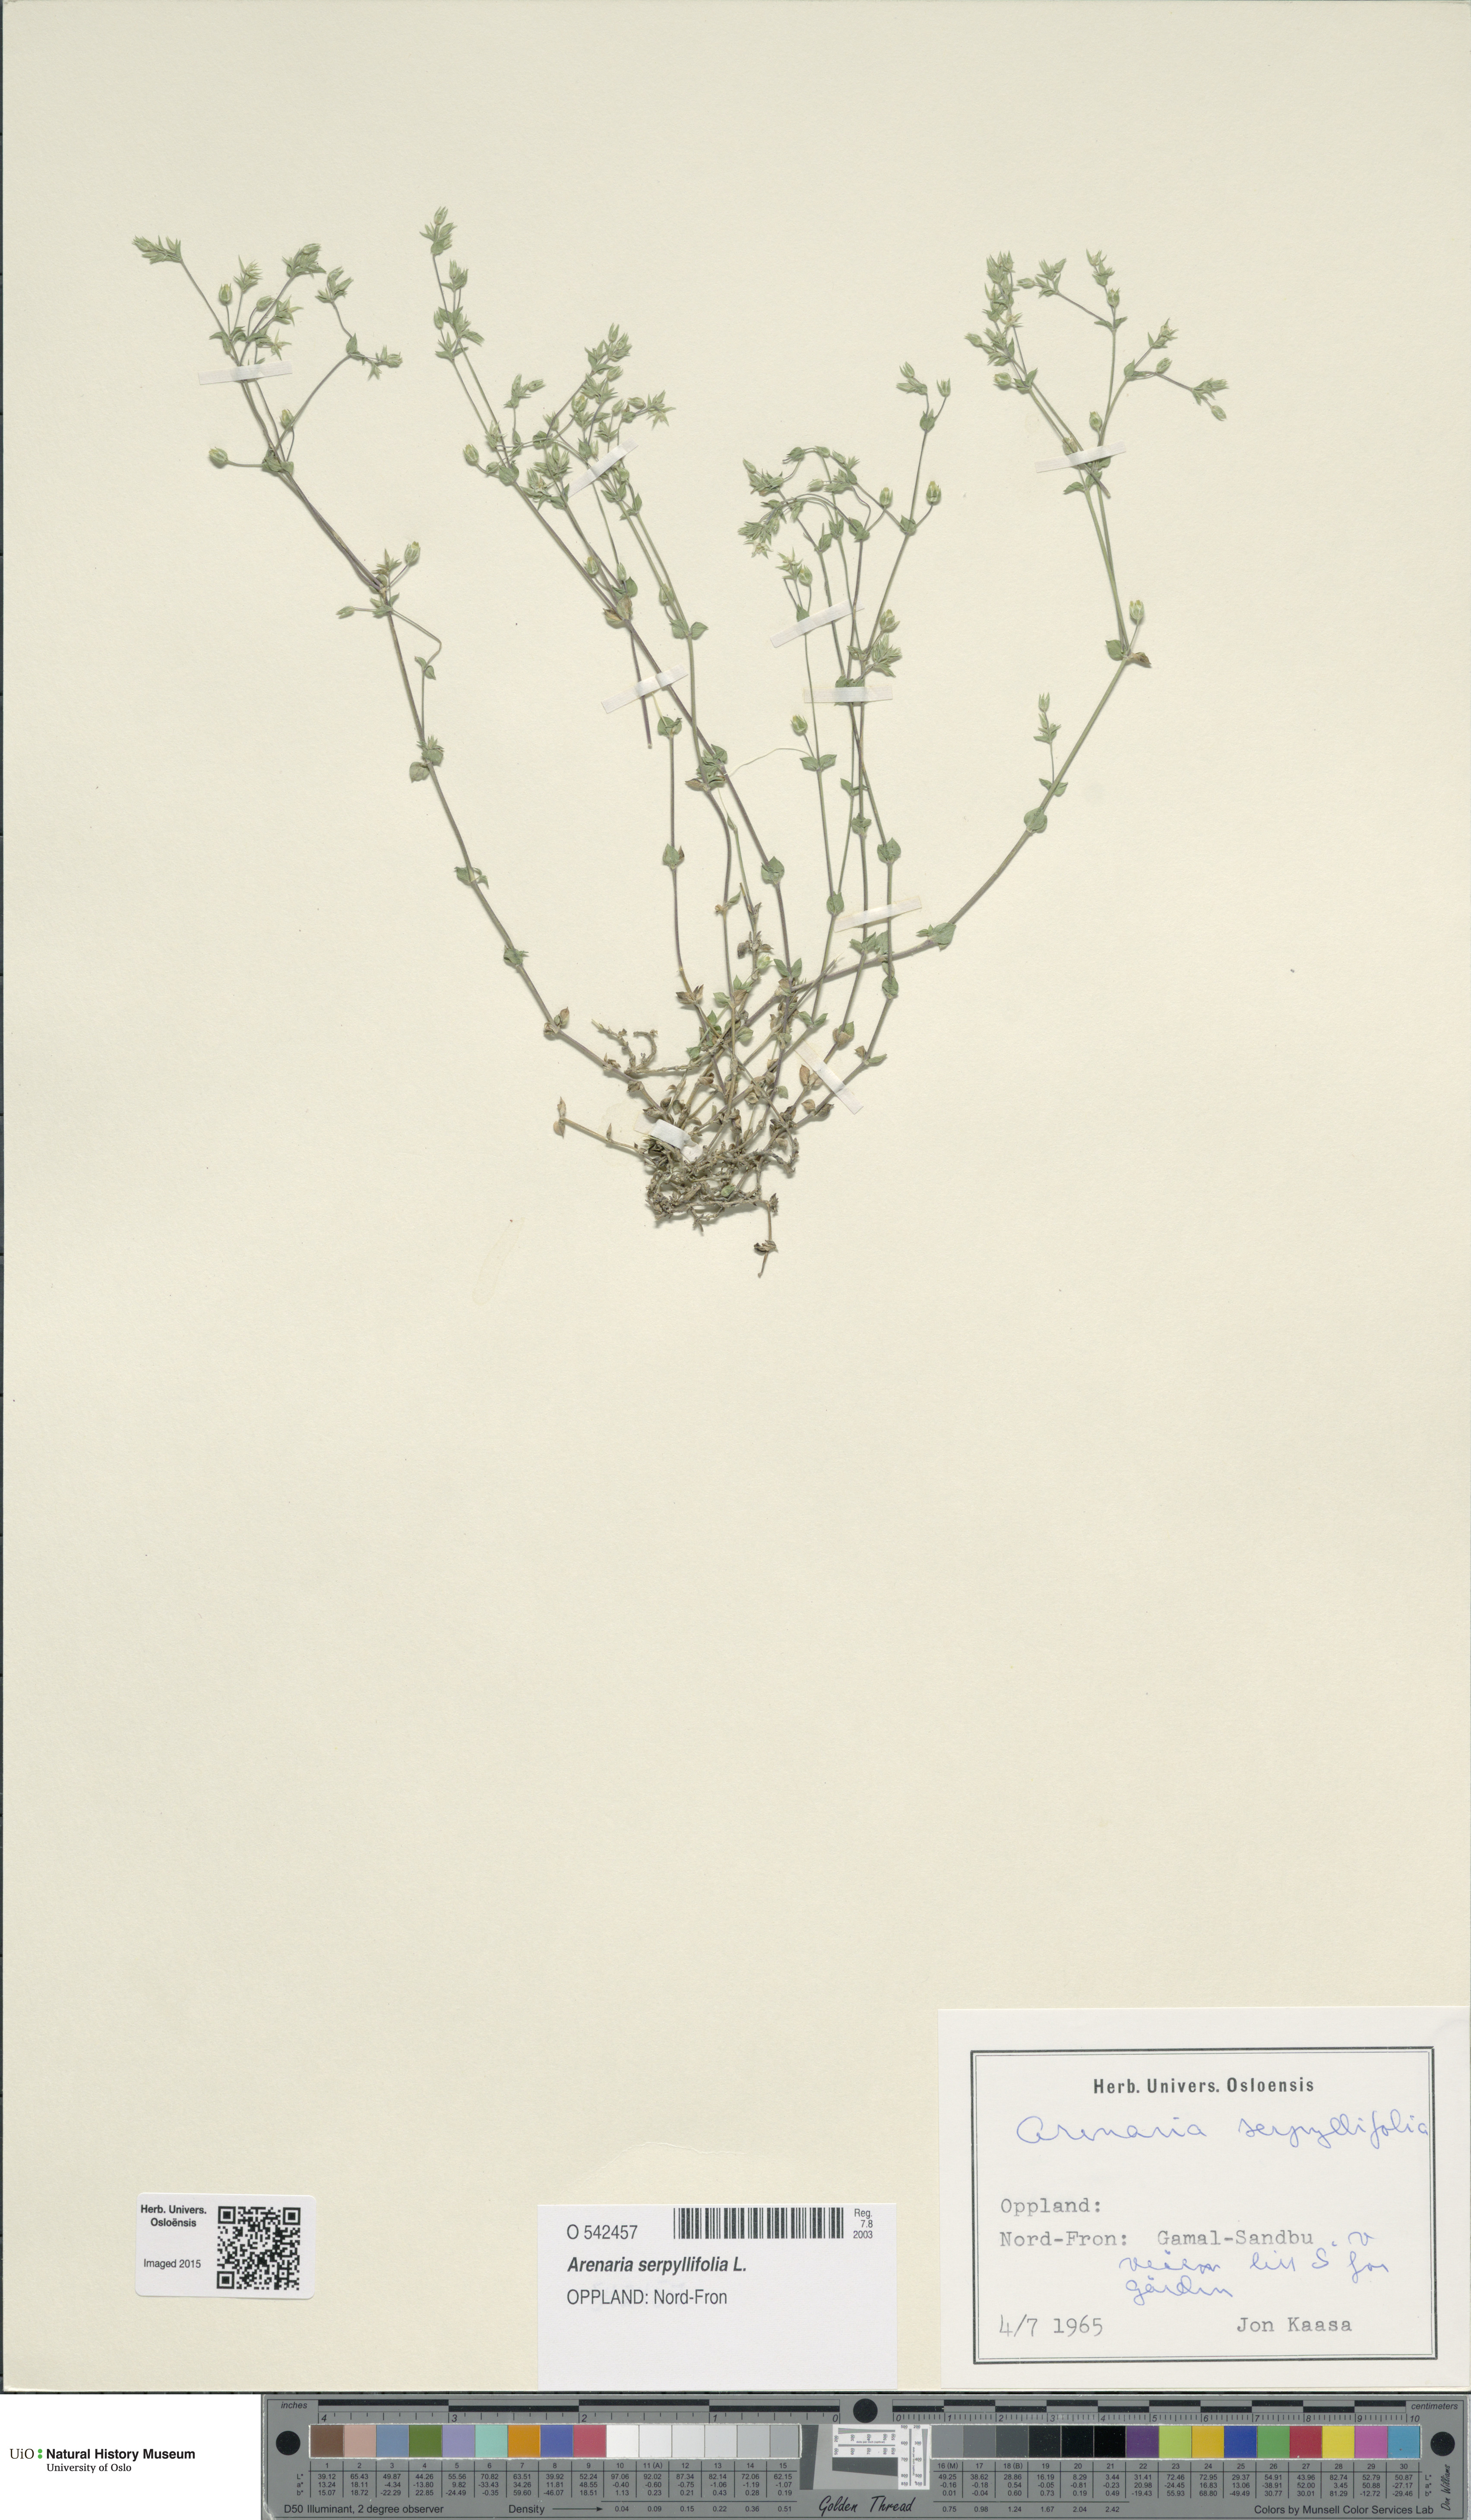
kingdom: Plantae
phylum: Tracheophyta
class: Magnoliopsida
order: Caryophyllales
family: Caryophyllaceae
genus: Arenaria
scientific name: Arenaria serpyllifolia
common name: Thyme-leaved sandwort
